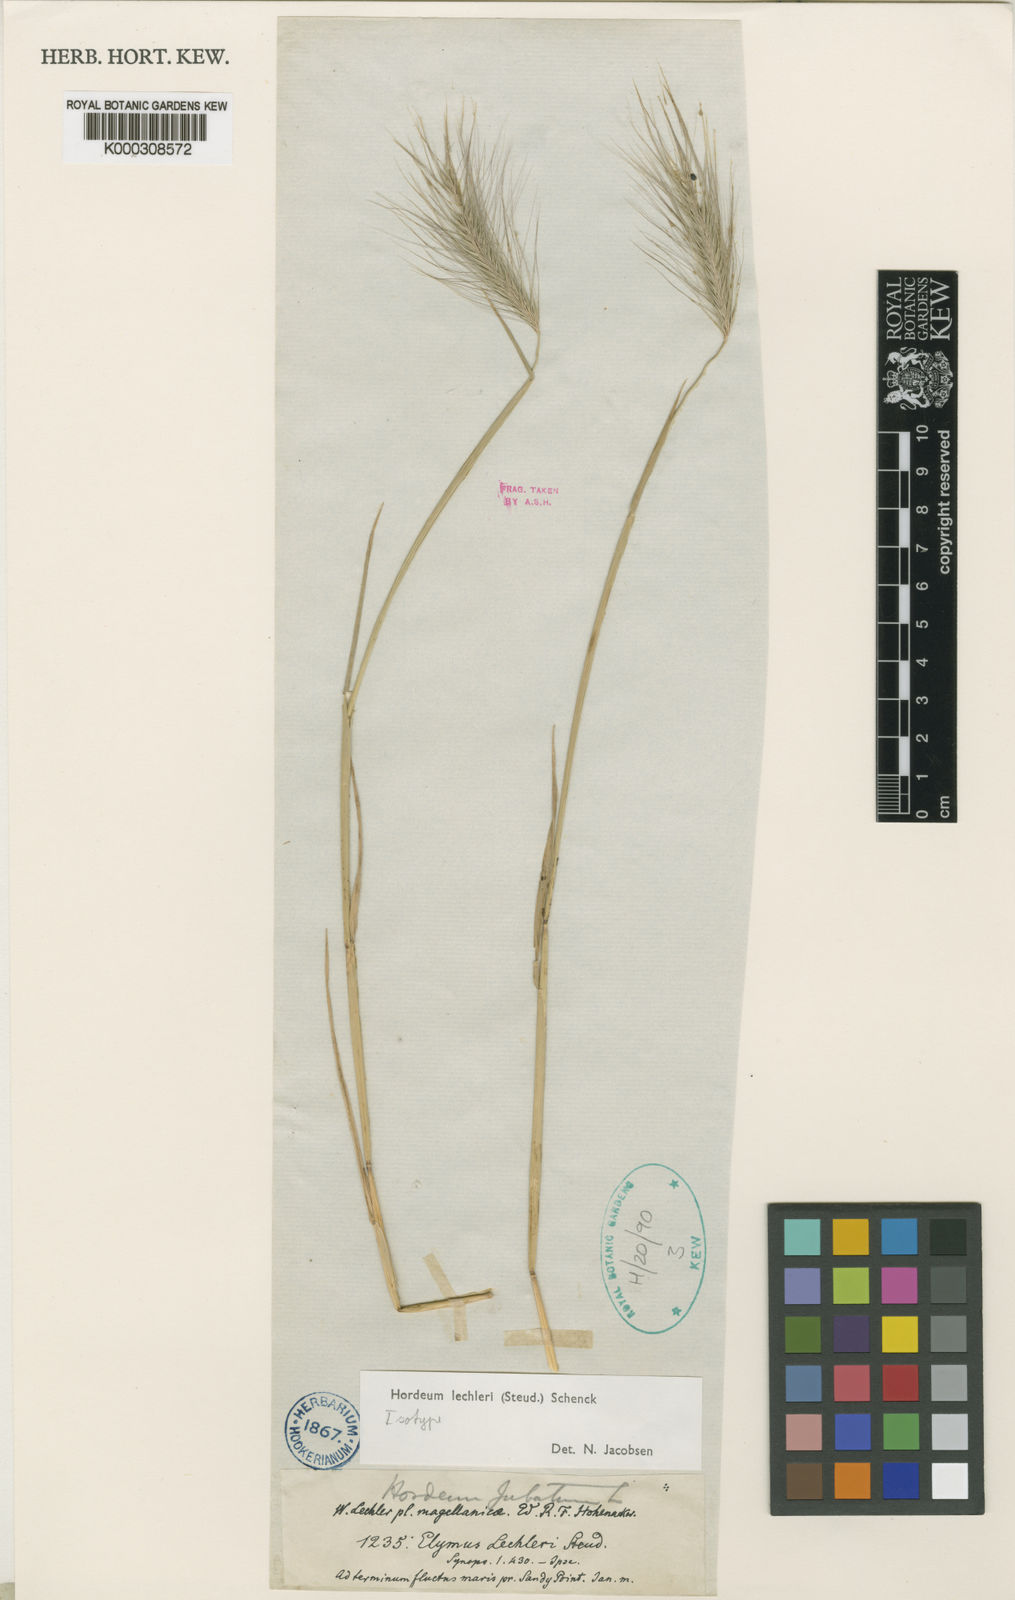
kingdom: Plantae
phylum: Tracheophyta
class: Liliopsida
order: Poales
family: Poaceae
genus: Hordeum
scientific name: Hordeum lechleri
